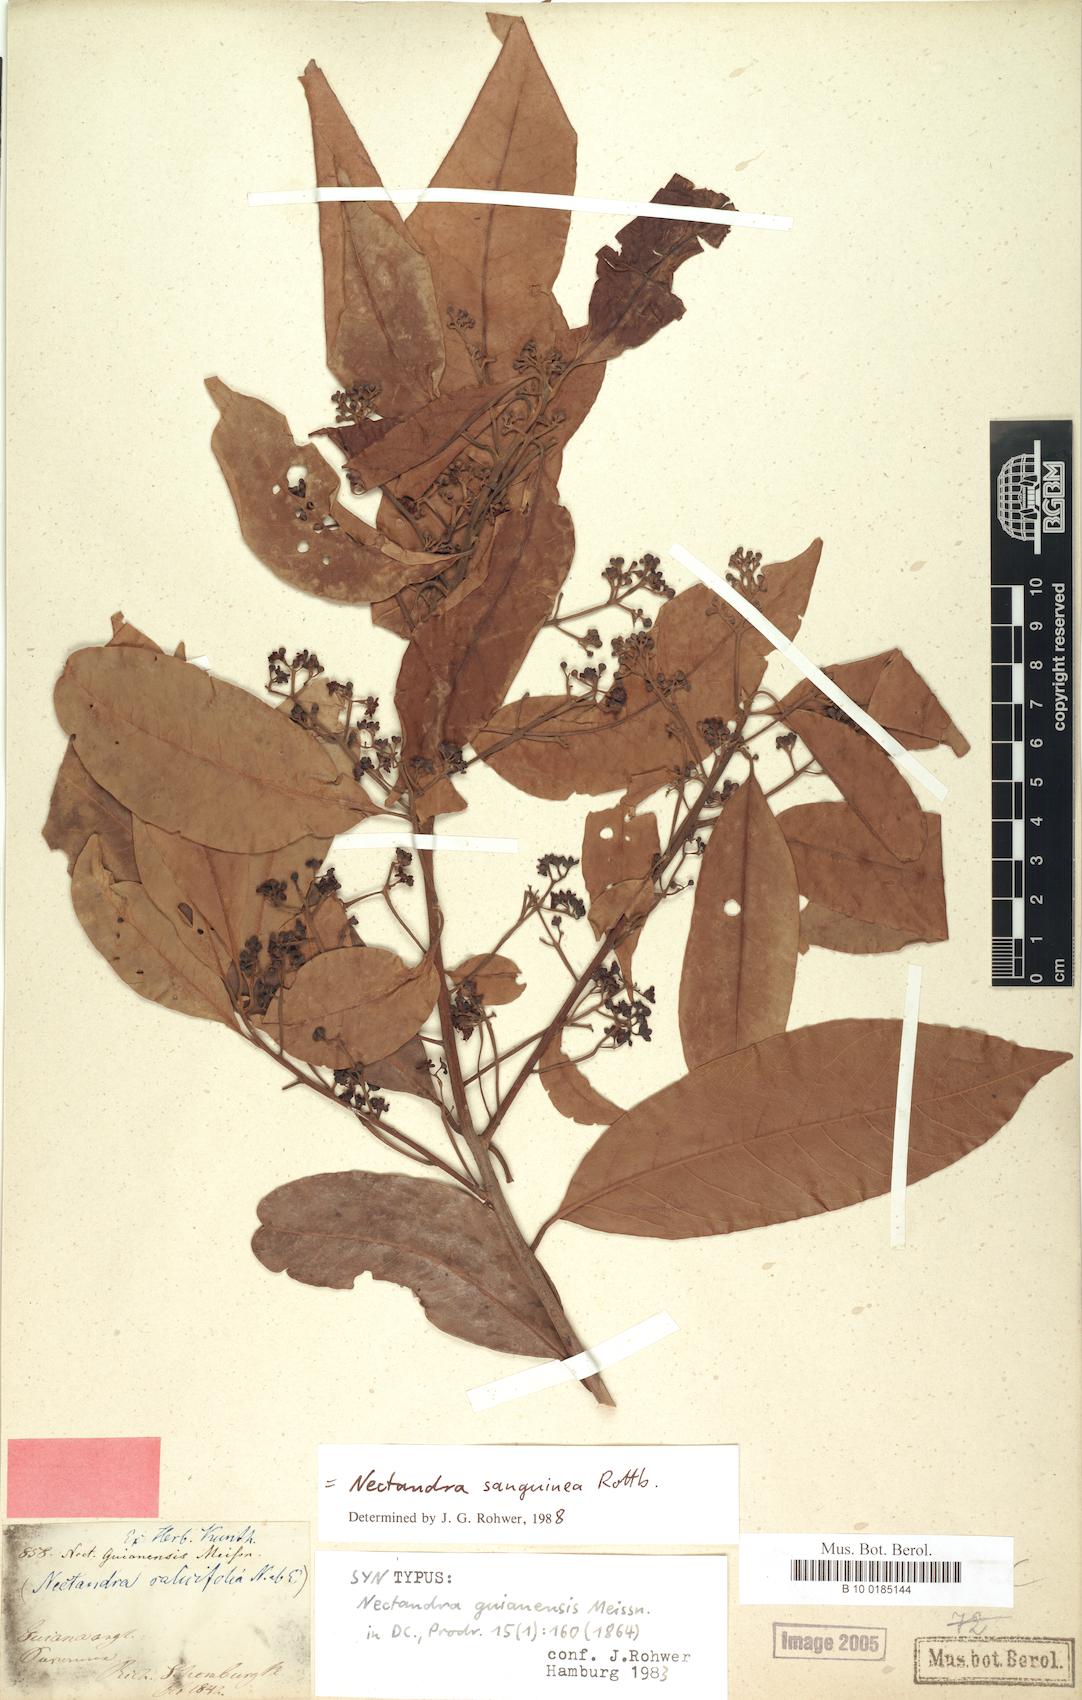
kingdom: Plantae
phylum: Tracheophyta
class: Magnoliopsida
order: Laurales
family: Lauraceae
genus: Nectandra
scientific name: Nectandra sanguinea
